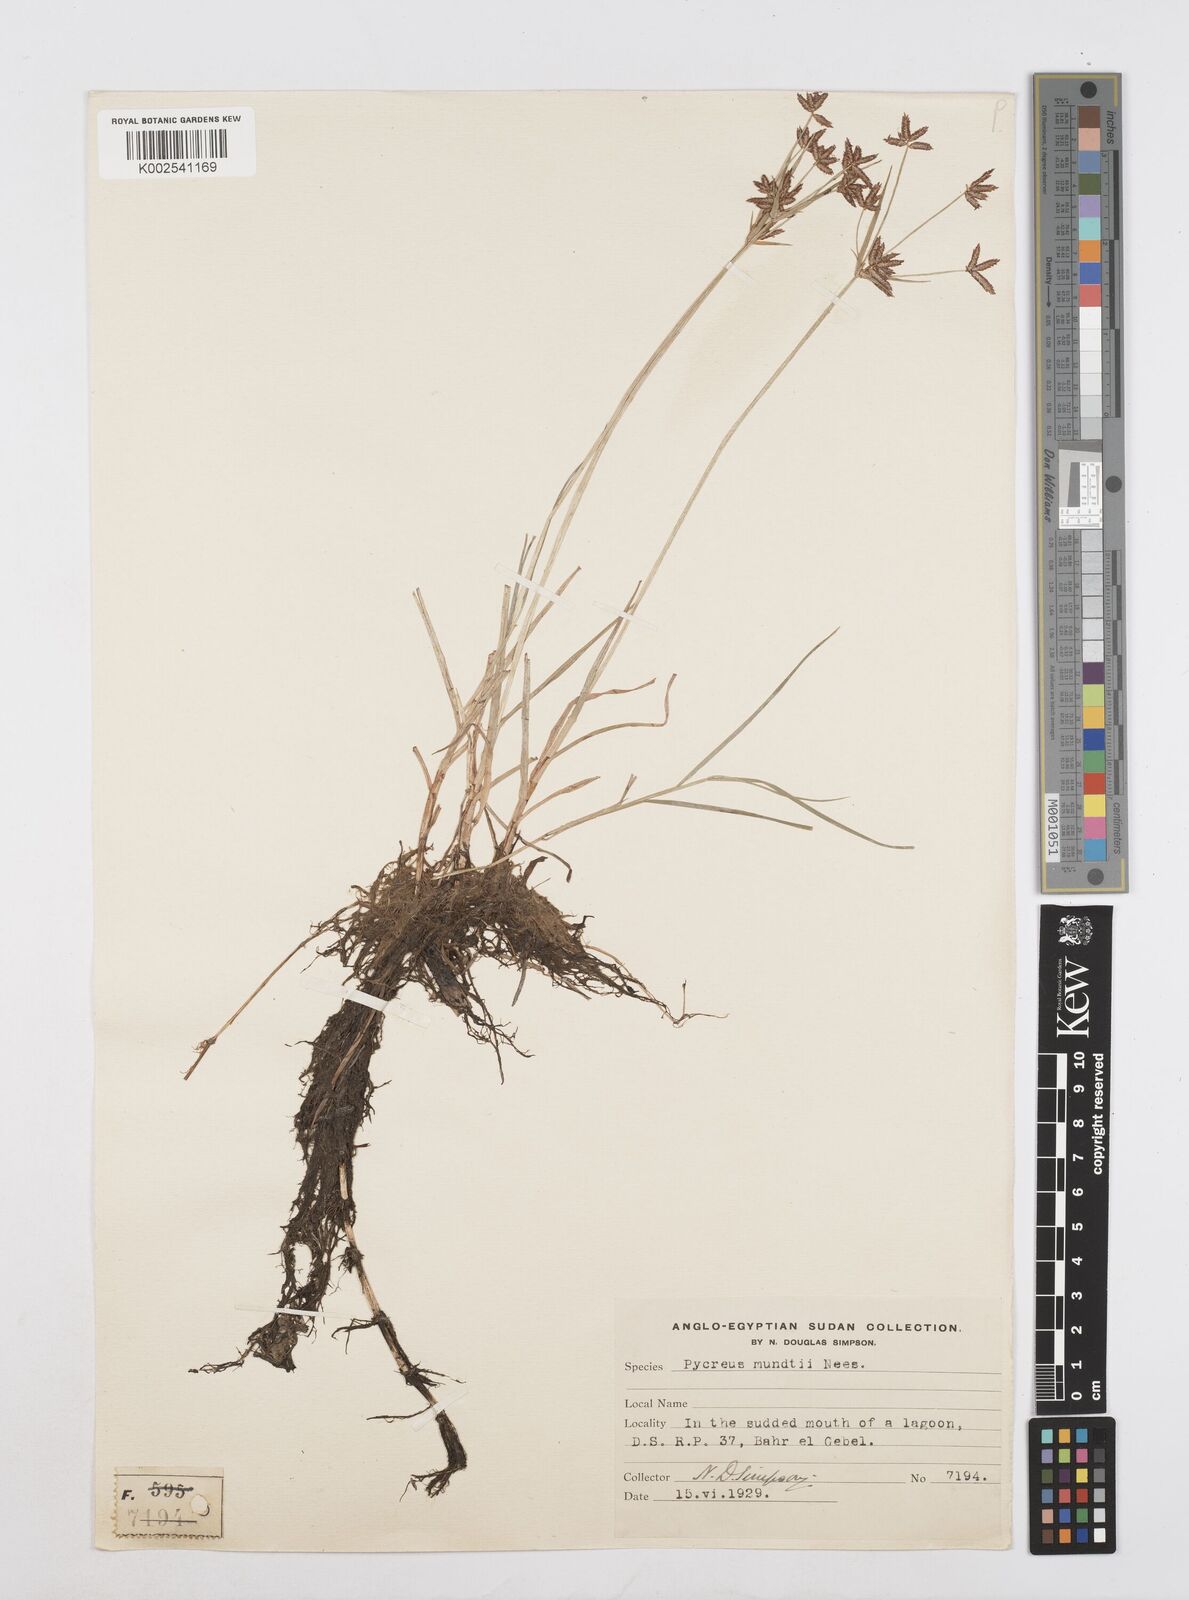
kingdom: Plantae
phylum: Tracheophyta
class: Liliopsida
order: Poales
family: Cyperaceae
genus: Cyperus
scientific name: Cyperus mundii
